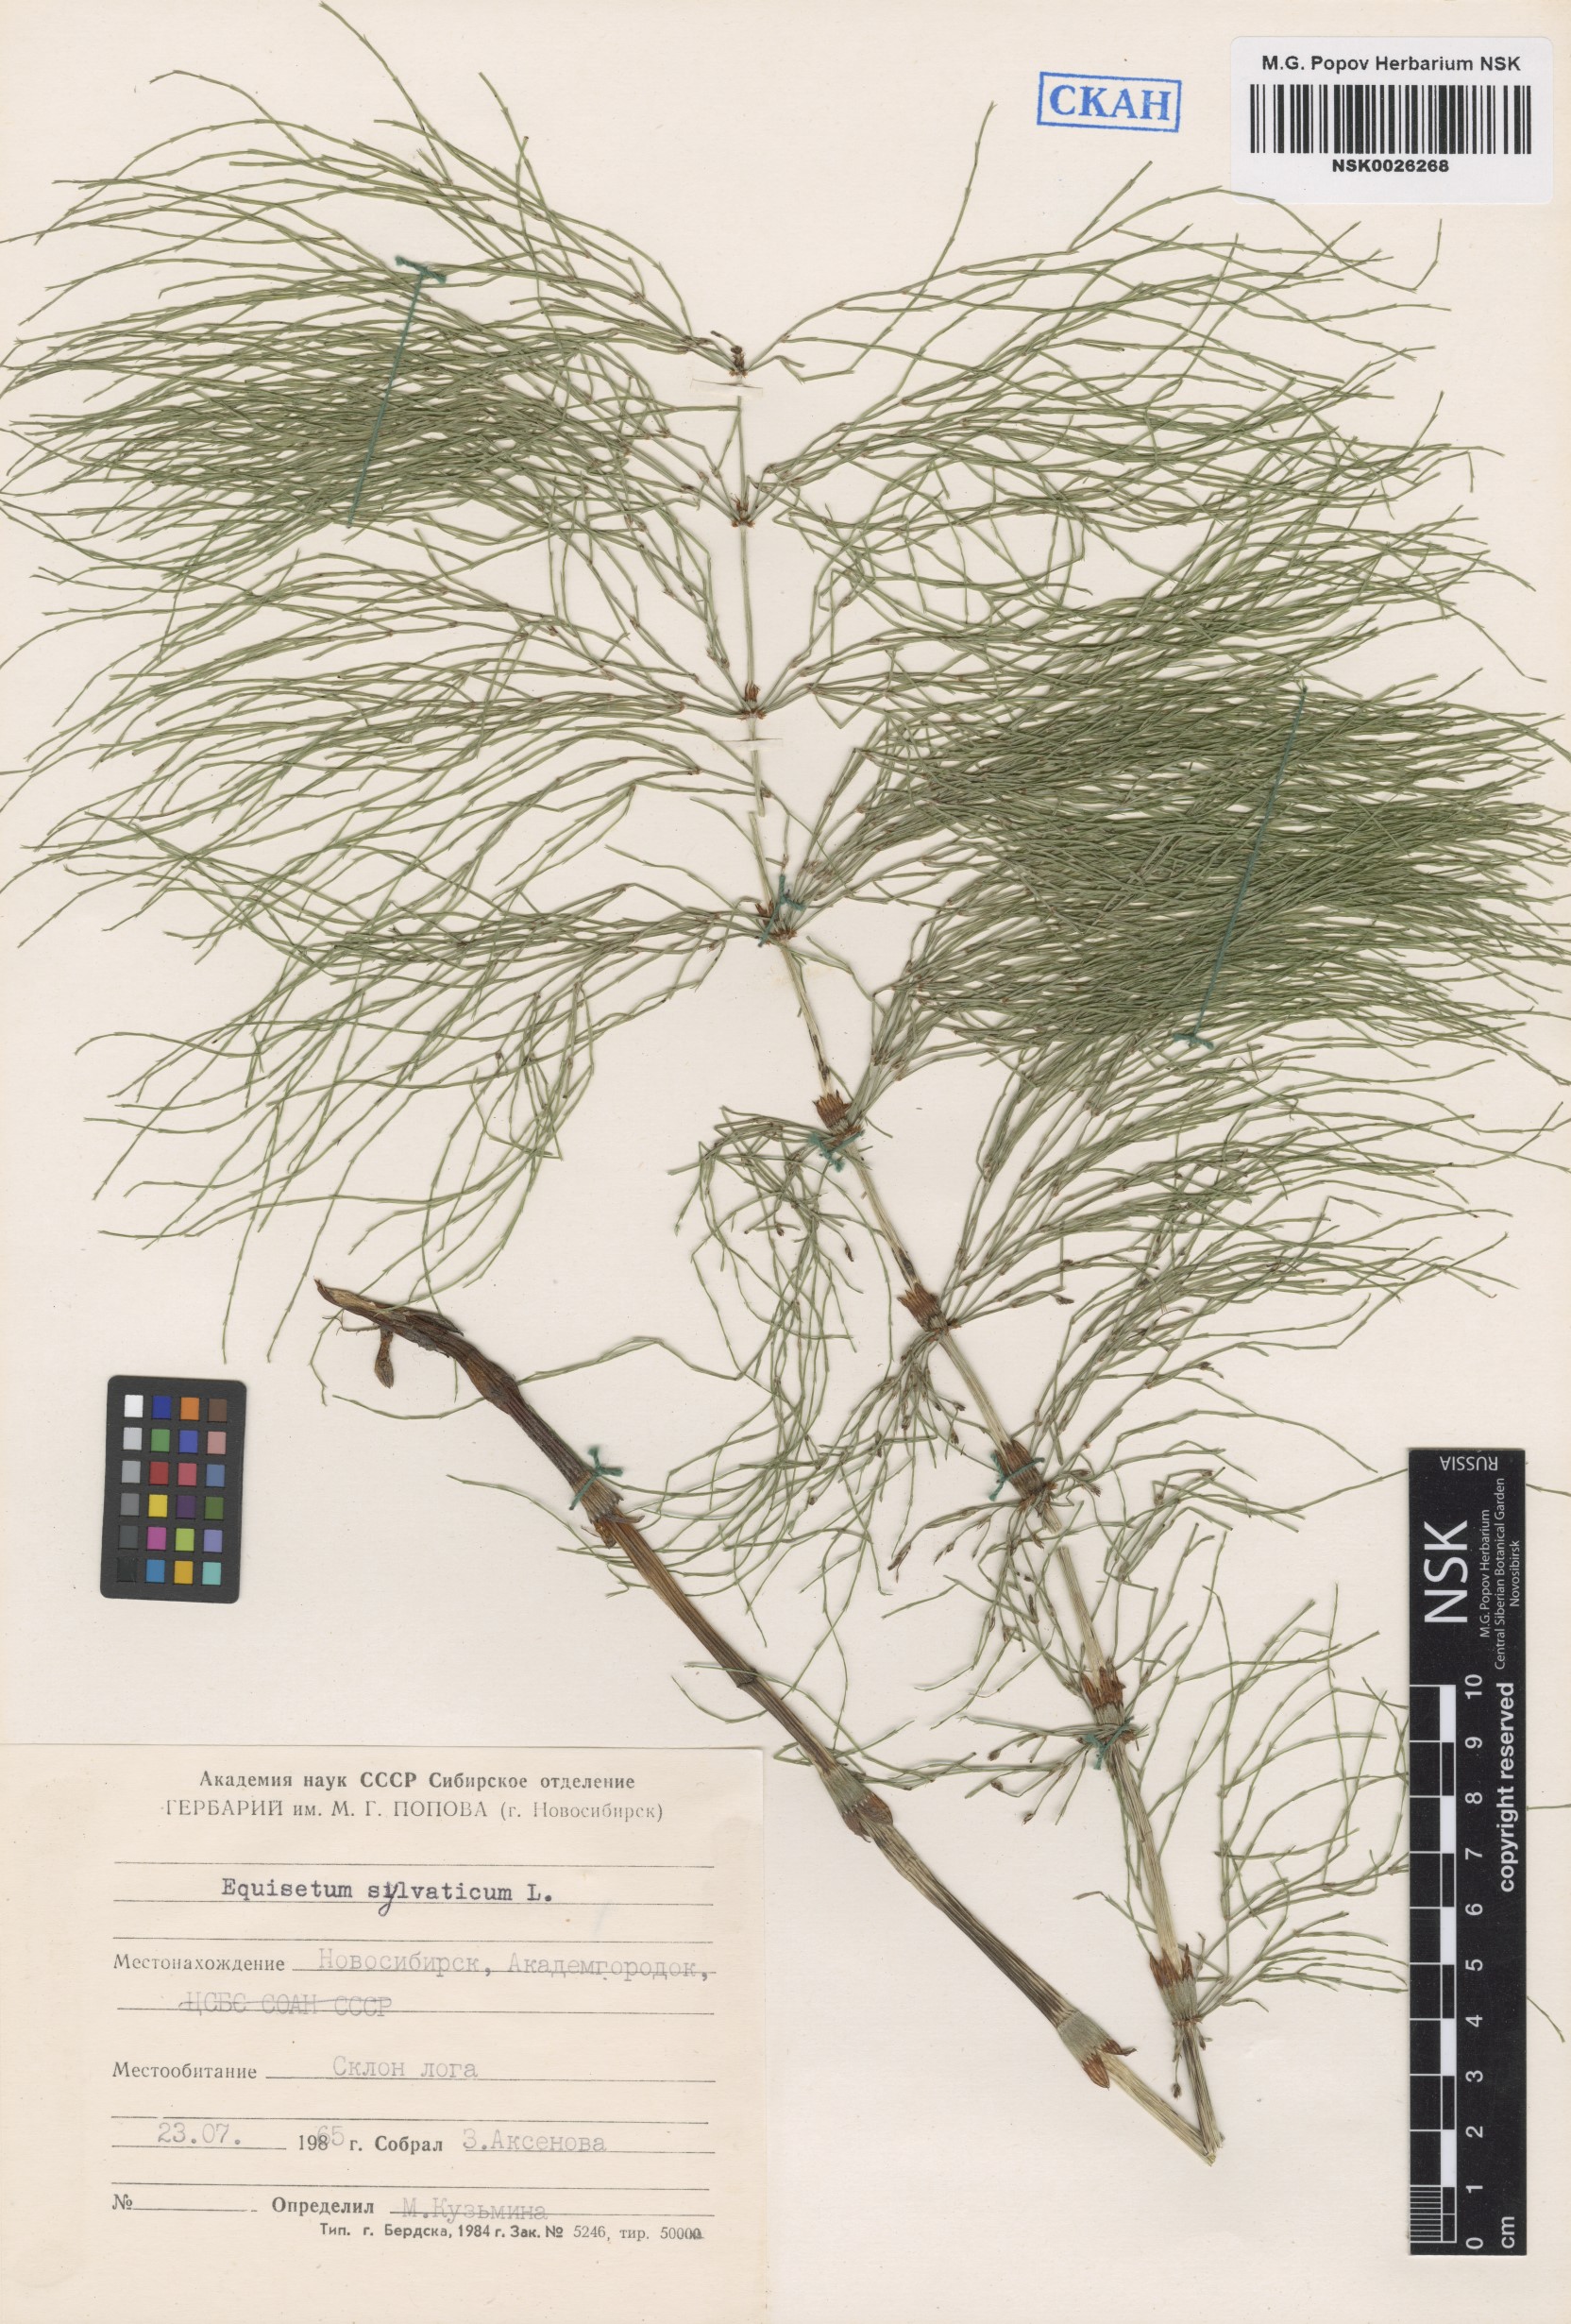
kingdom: Plantae
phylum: Tracheophyta
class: Polypodiopsida
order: Equisetales
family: Equisetaceae
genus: Equisetum
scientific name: Equisetum sylvaticum
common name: Wood horsetail
